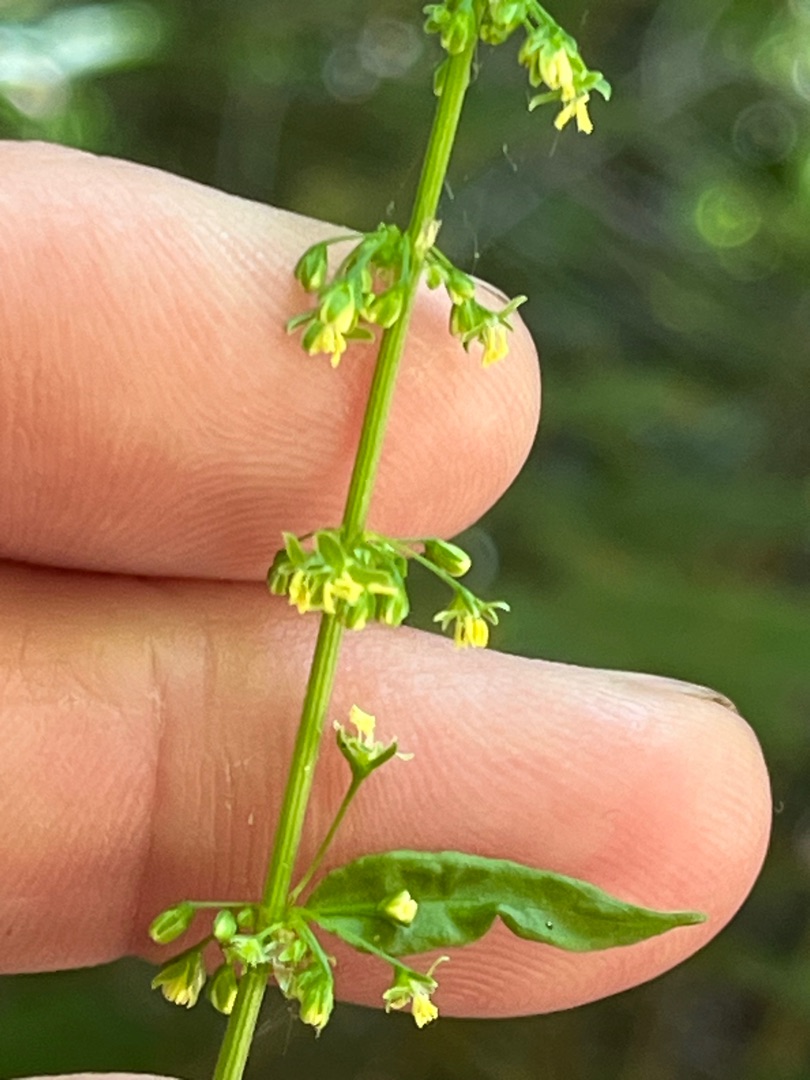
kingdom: Plantae
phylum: Tracheophyta
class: Magnoliopsida
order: Caryophyllales
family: Polygonaceae
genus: Rumex
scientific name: Rumex sanguineus
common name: Skov-skræppe
